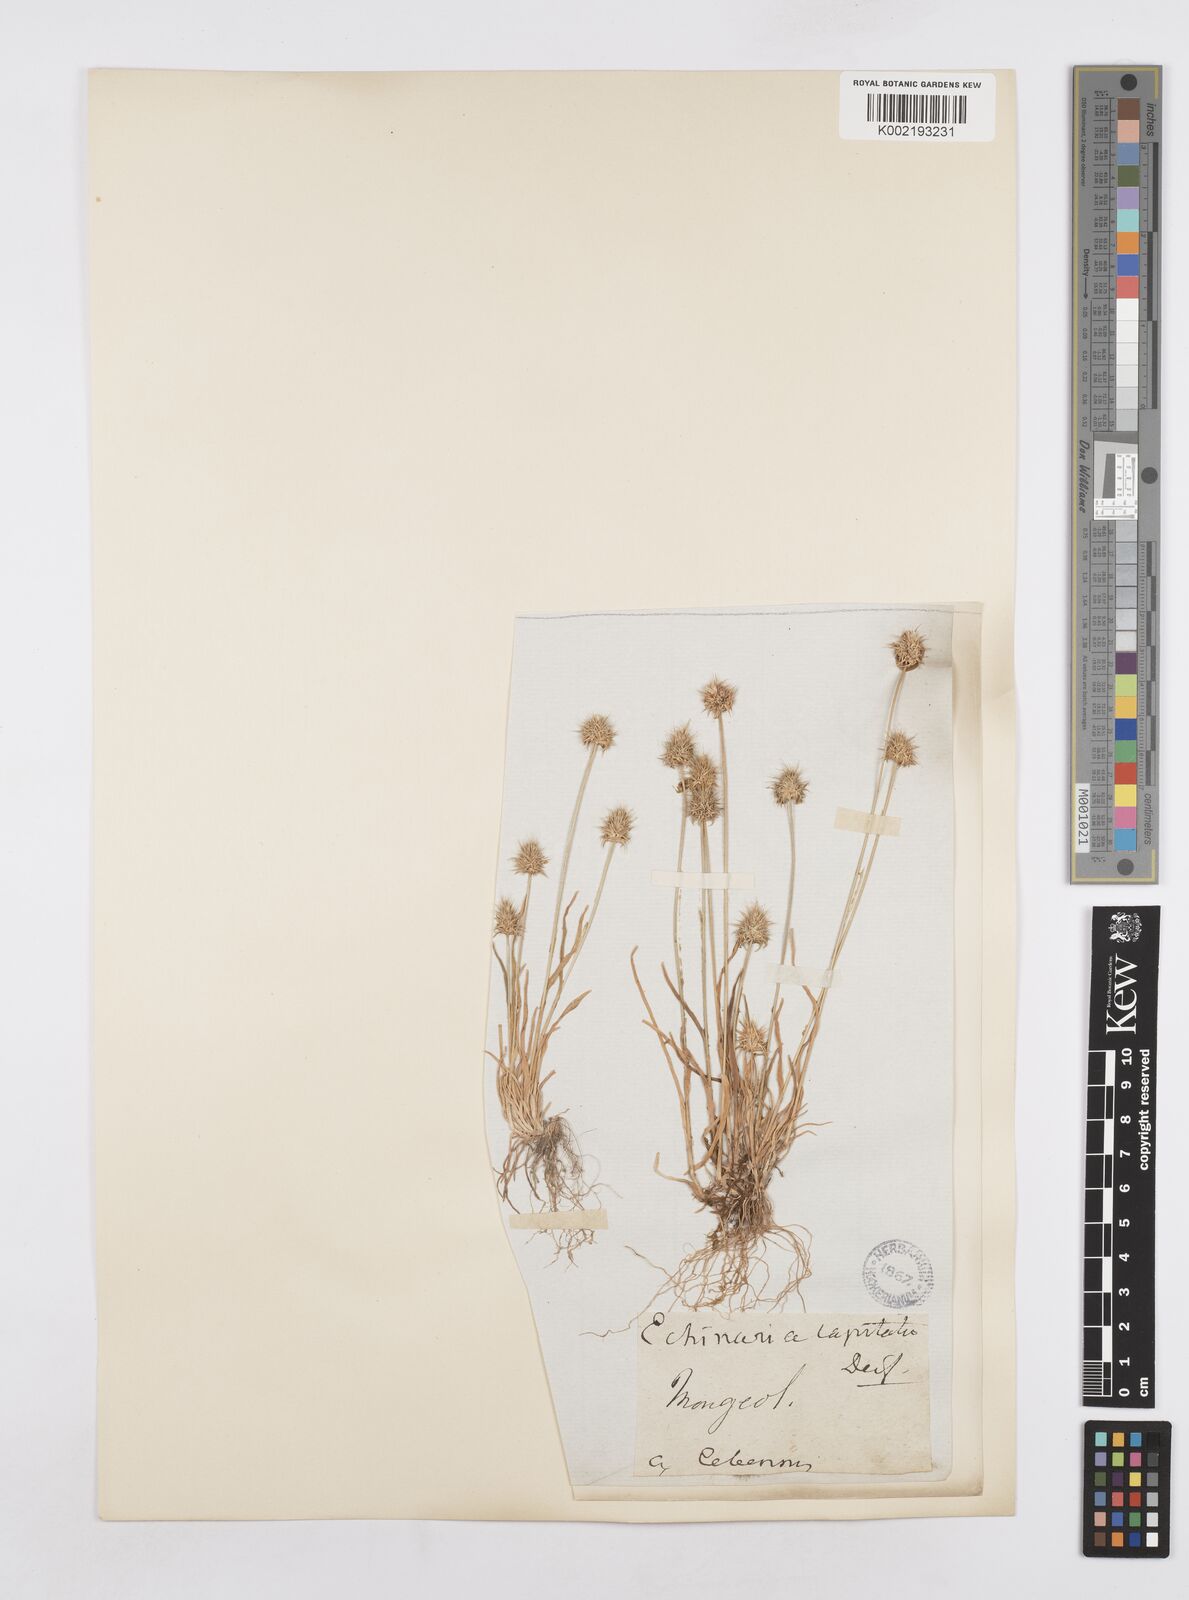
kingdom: Plantae
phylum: Tracheophyta
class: Liliopsida
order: Poales
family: Poaceae
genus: Echinaria
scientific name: Echinaria capitata
